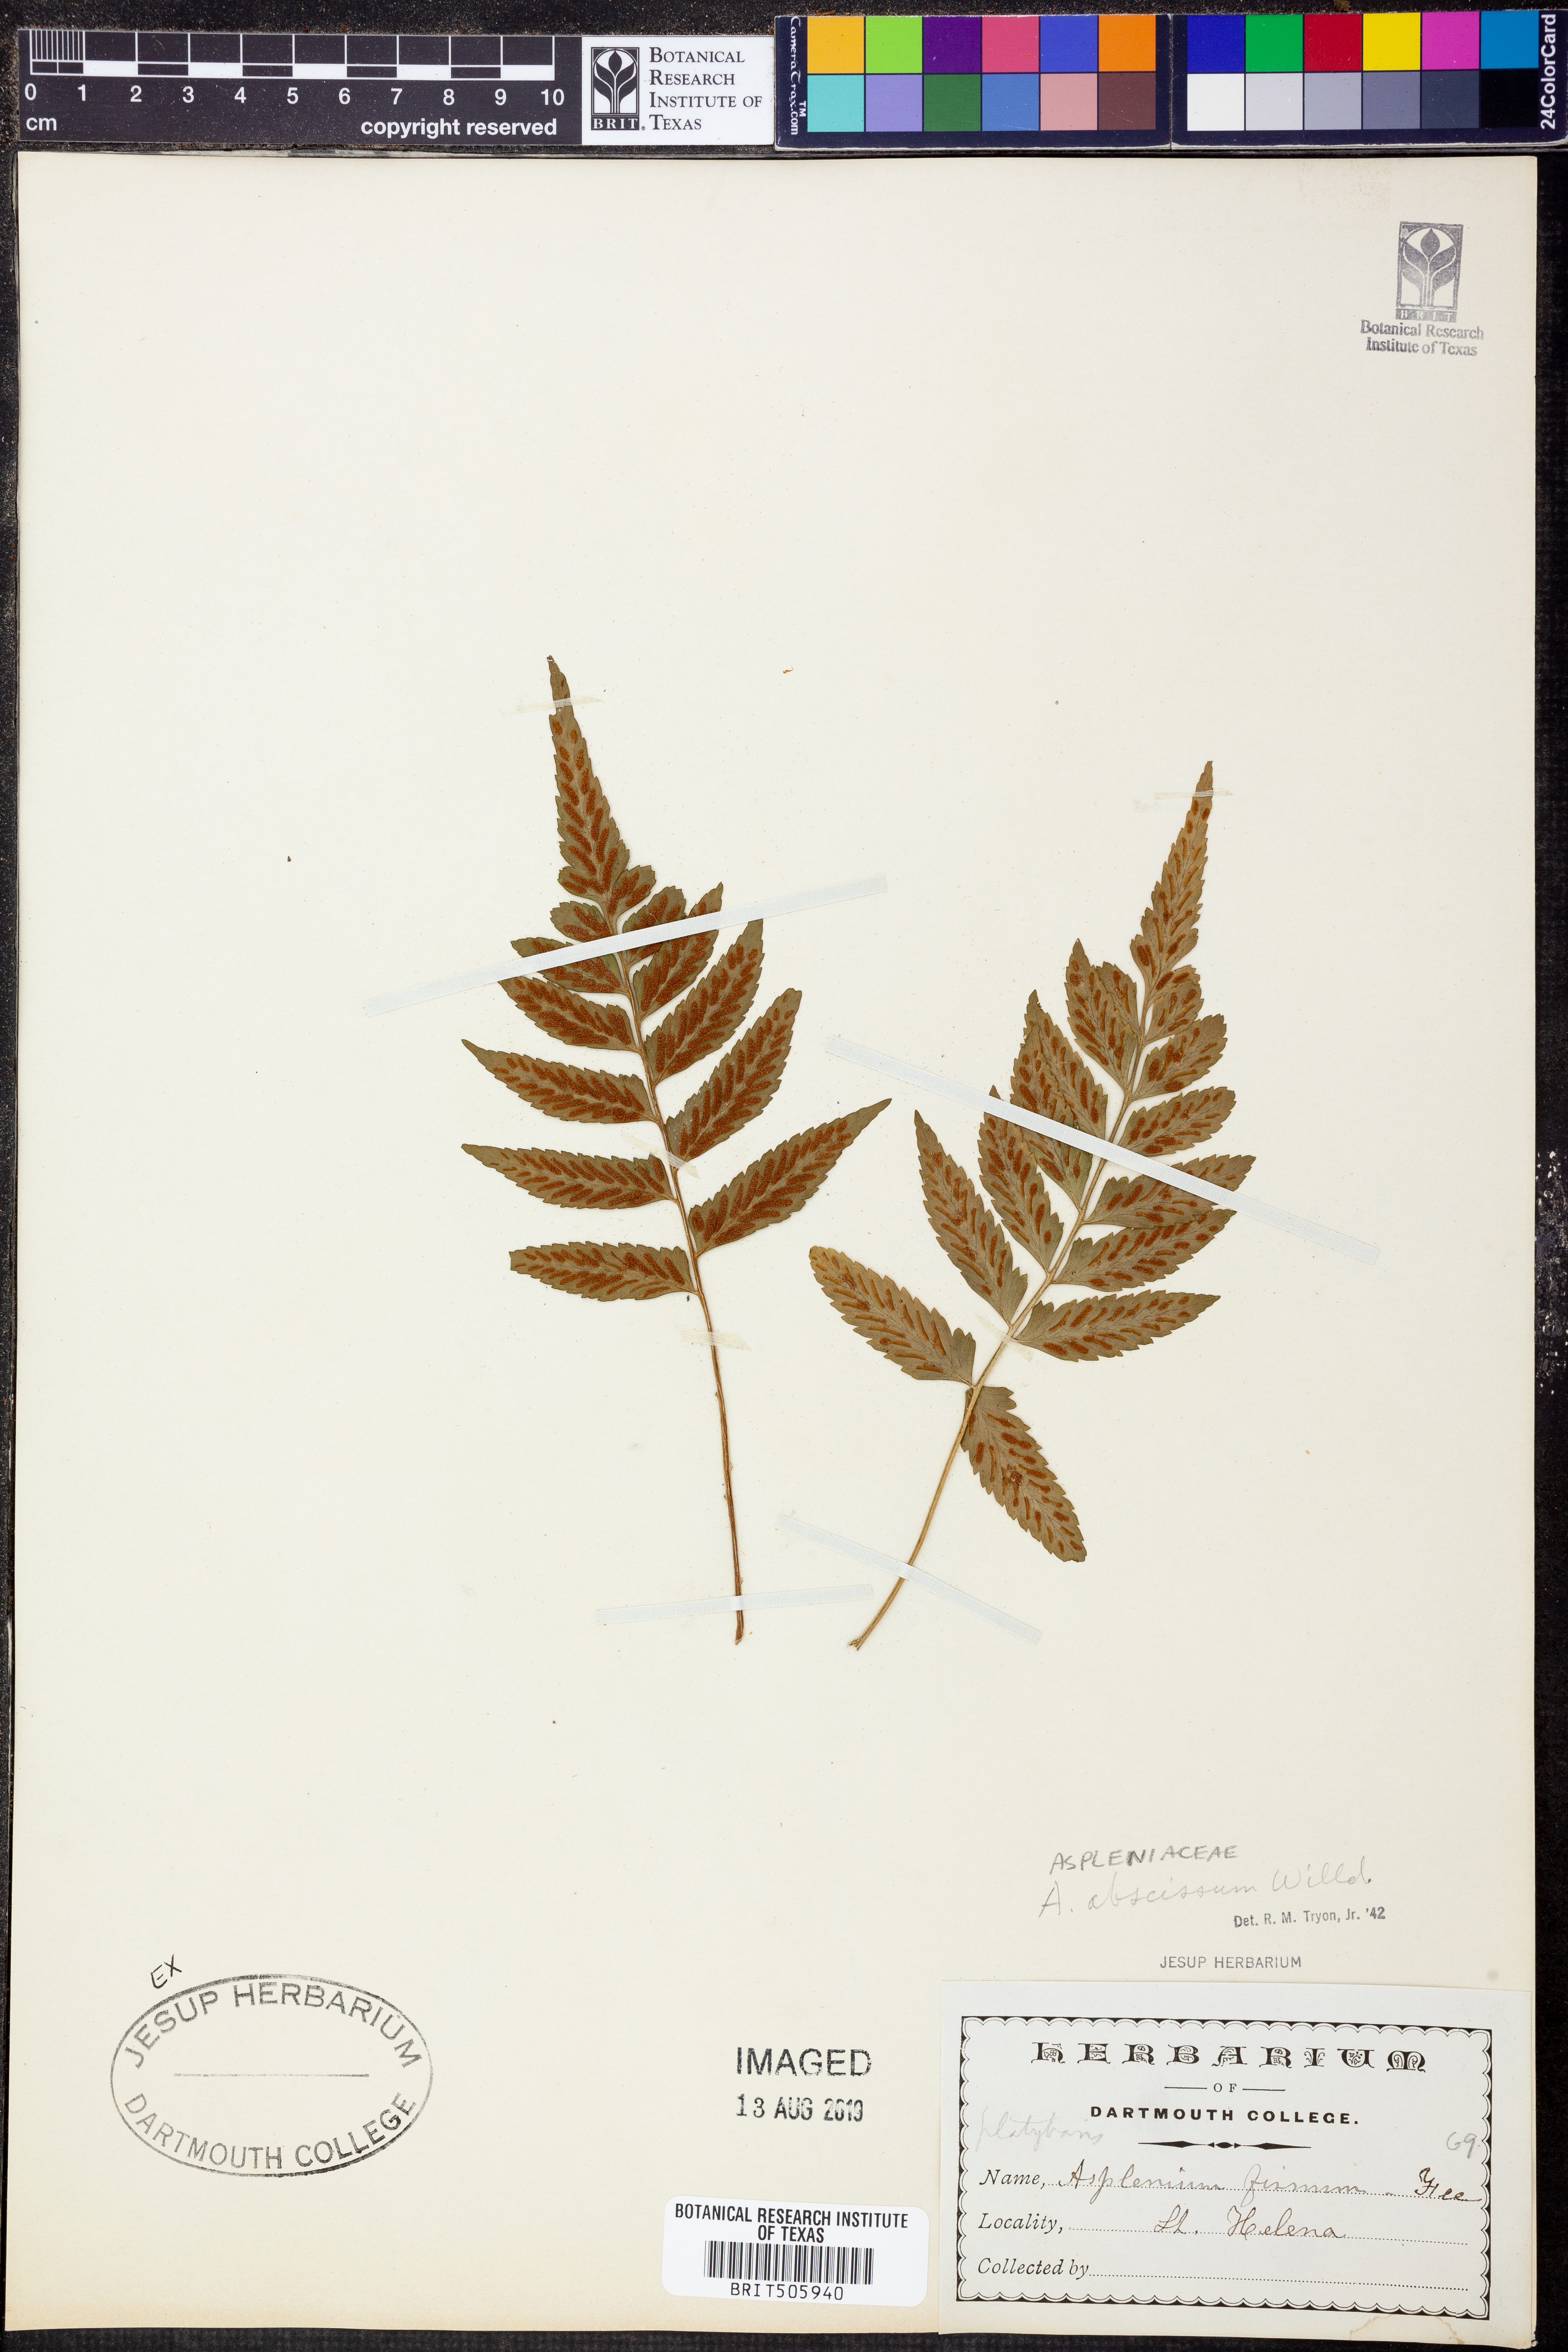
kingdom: Plantae
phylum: Tracheophyta
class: Polypodiopsida
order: Polypodiales
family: Aspleniaceae
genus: Asplenium
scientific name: Asplenium abscissum
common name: Cutleaf spleenwort
